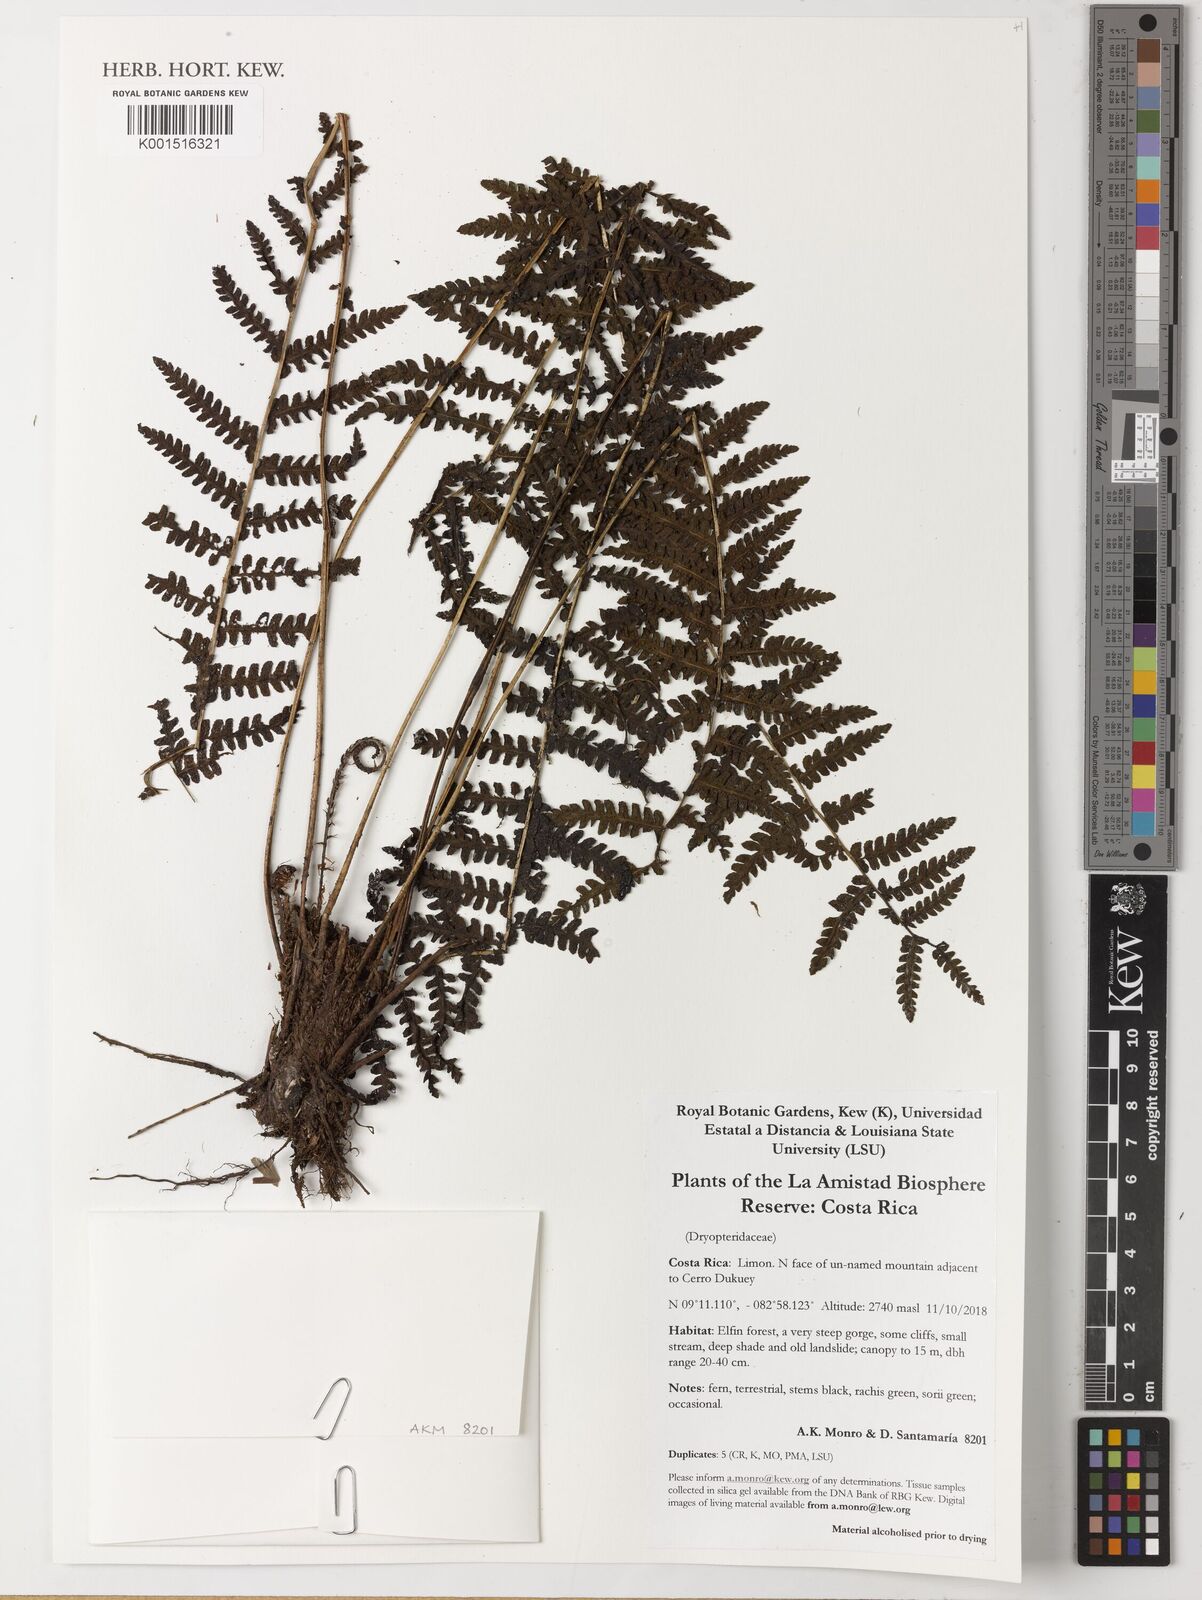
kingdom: Plantae
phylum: Tracheophyta
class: Polypodiopsida
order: Polypodiales
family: Dryopteridaceae
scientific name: Dryopteridaceae
